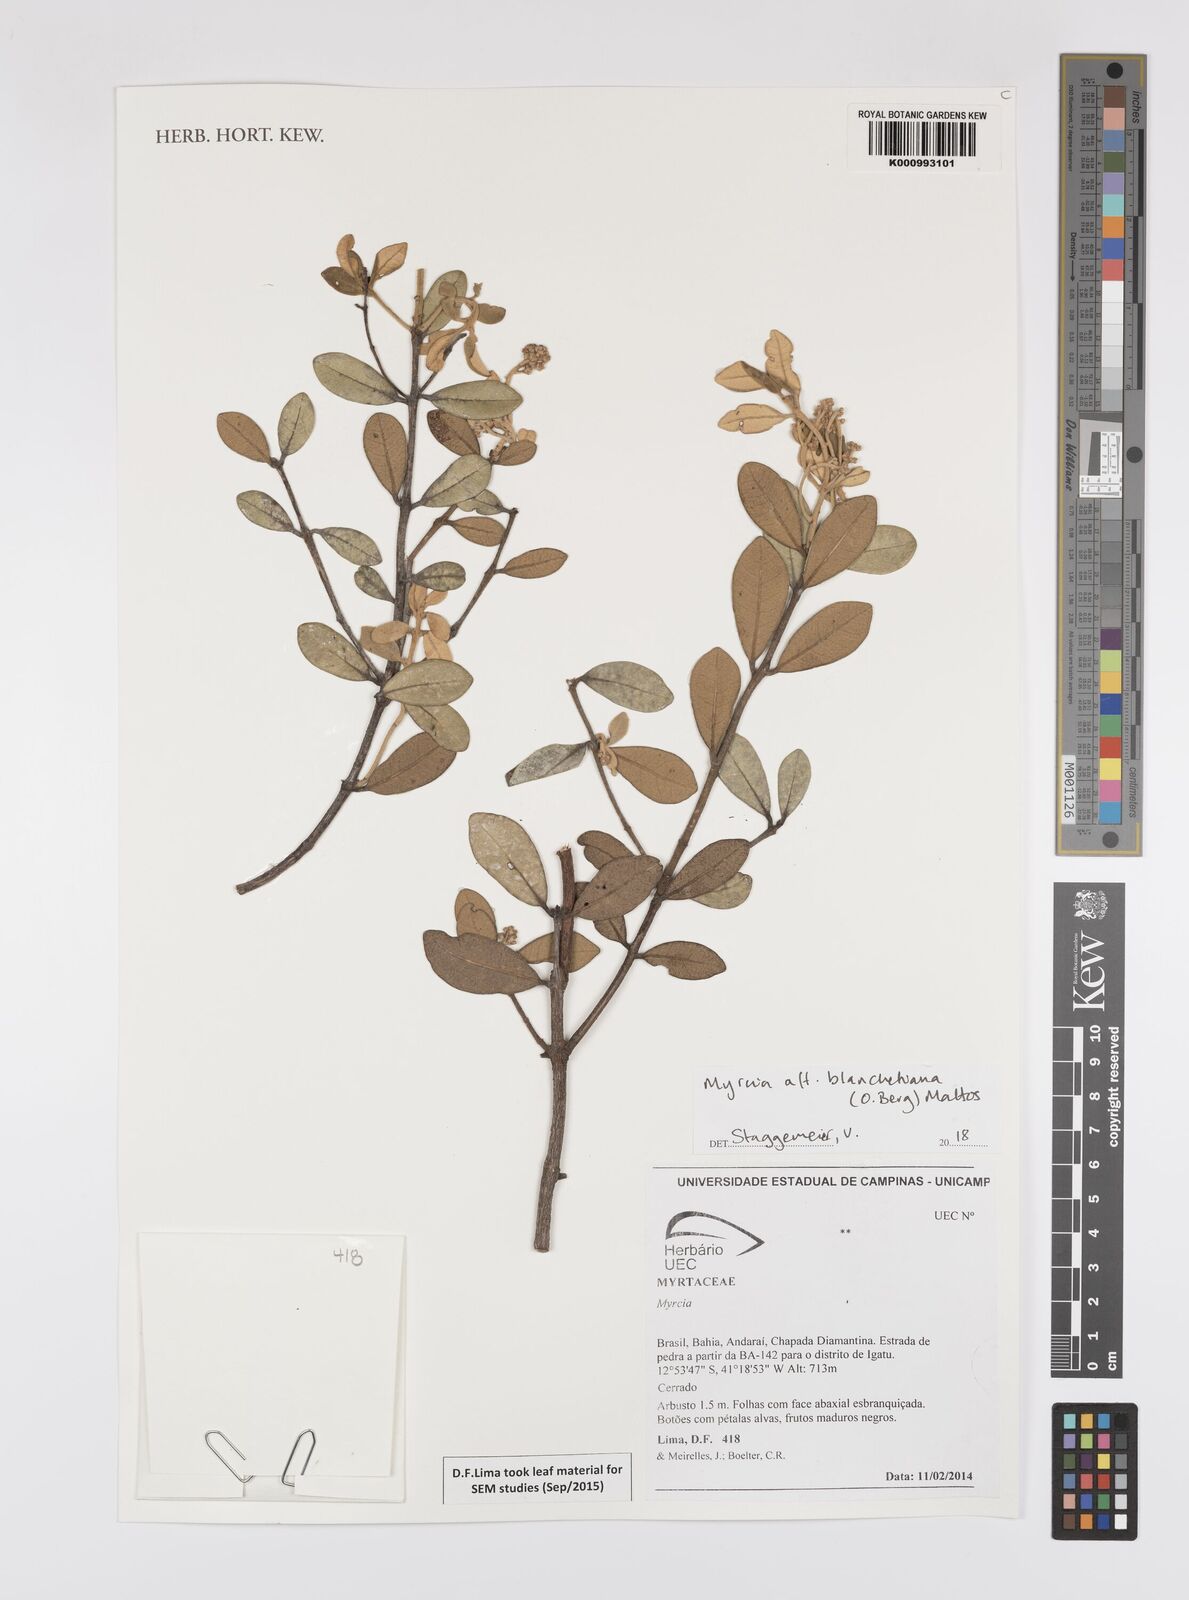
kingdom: Plantae
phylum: Tracheophyta
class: Magnoliopsida
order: Myrtales
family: Myrtaceae
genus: Myrcia
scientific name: Myrcia blanchetiana
